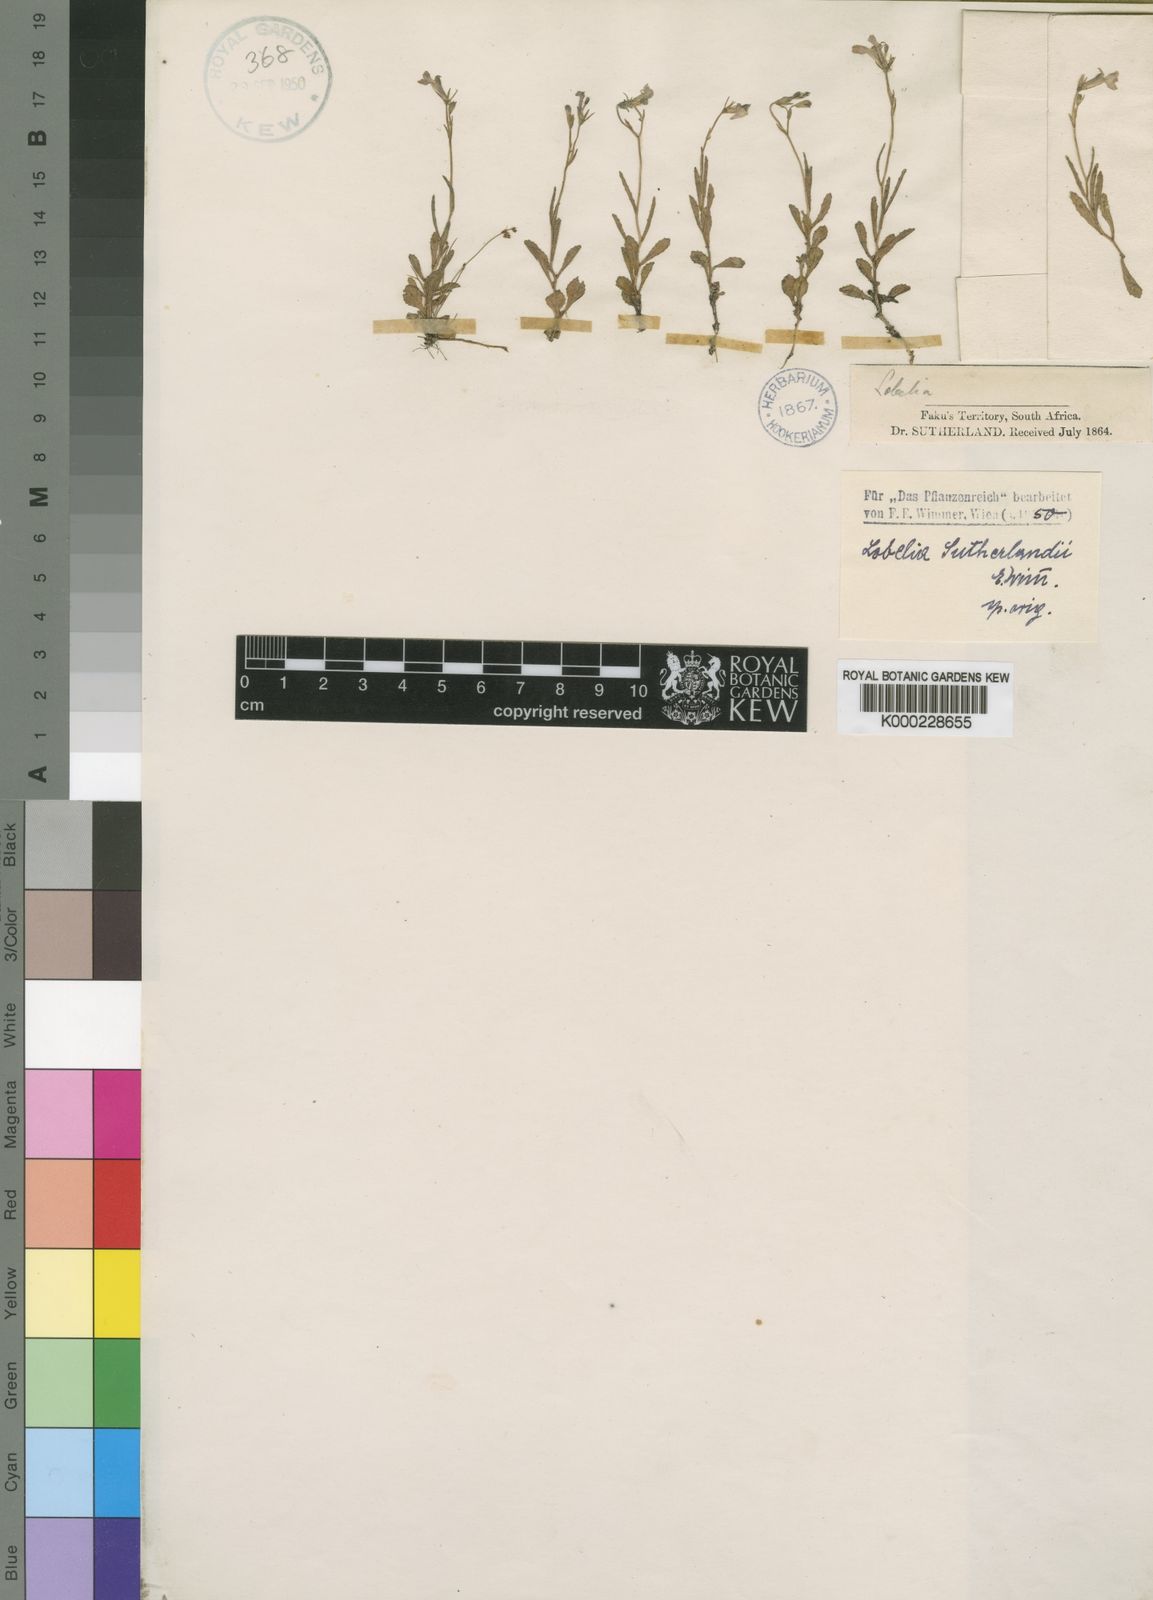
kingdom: Plantae
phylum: Tracheophyta
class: Magnoliopsida
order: Asterales
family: Campanulaceae
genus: Lobelia
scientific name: Lobelia sutherlandii
